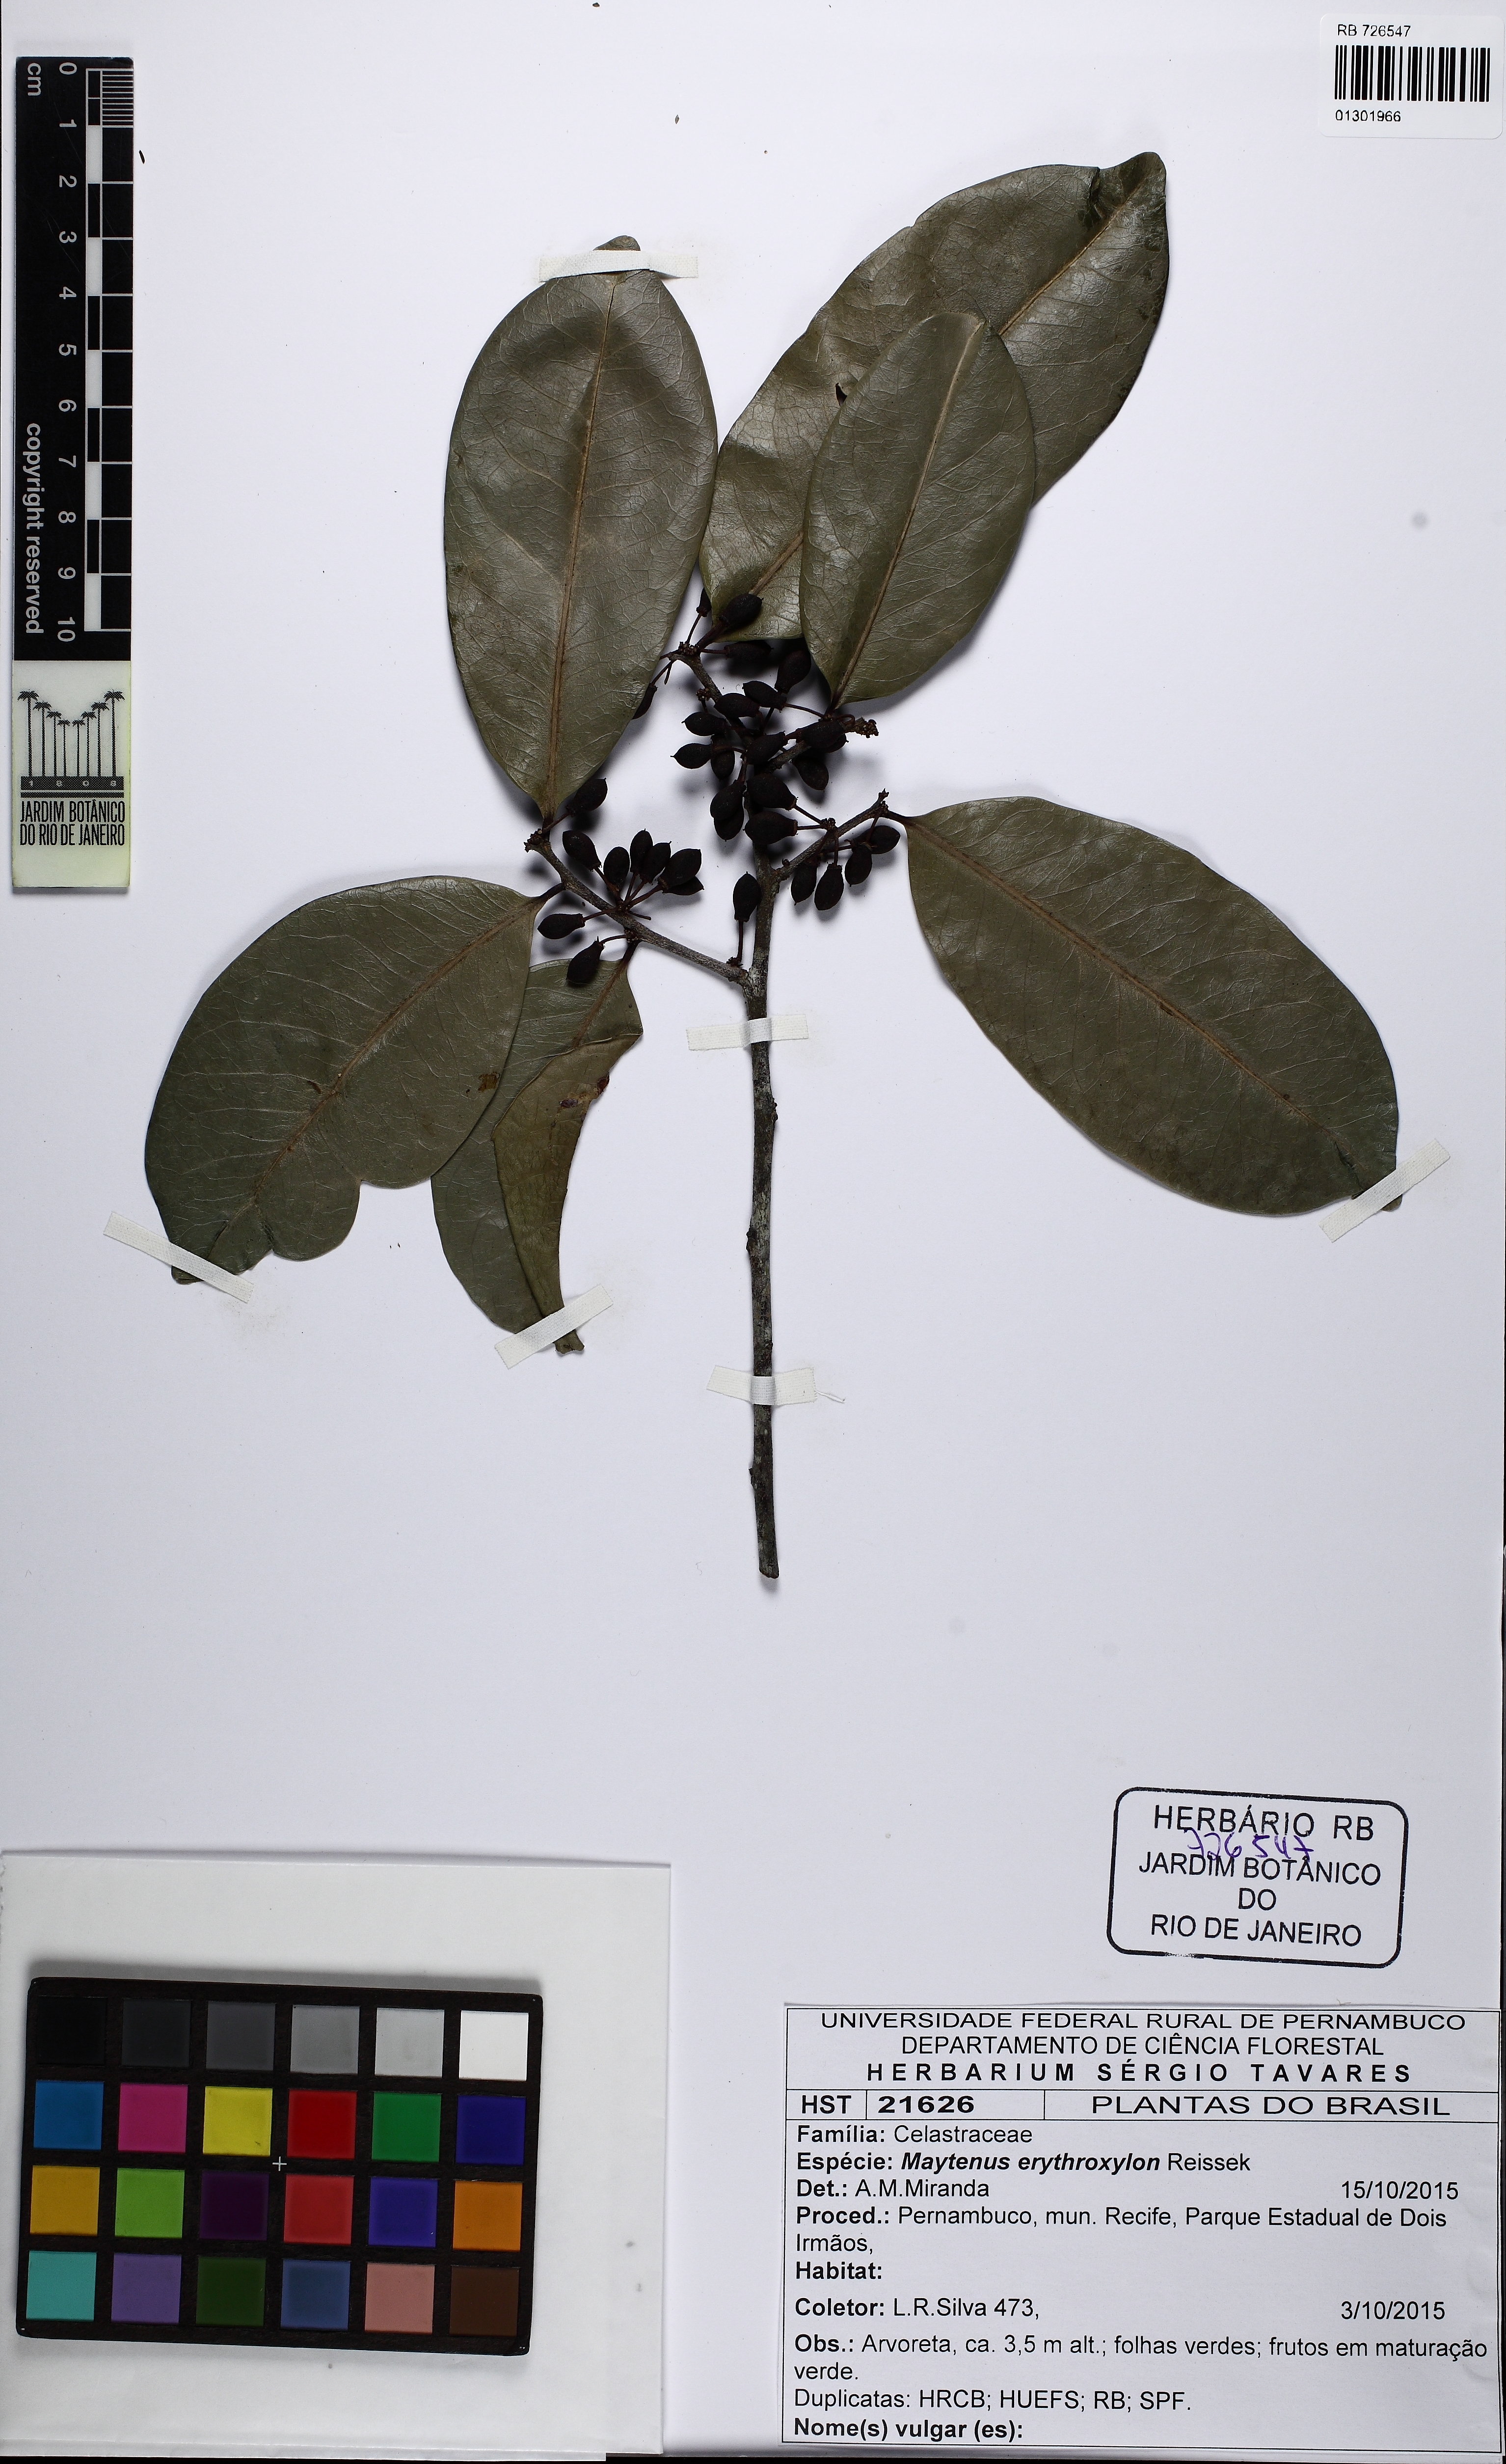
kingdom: Plantae
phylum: Tracheophyta
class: Magnoliopsida
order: Celastrales
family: Celastraceae
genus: Monteverdia
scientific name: Monteverdia erythroxylon
